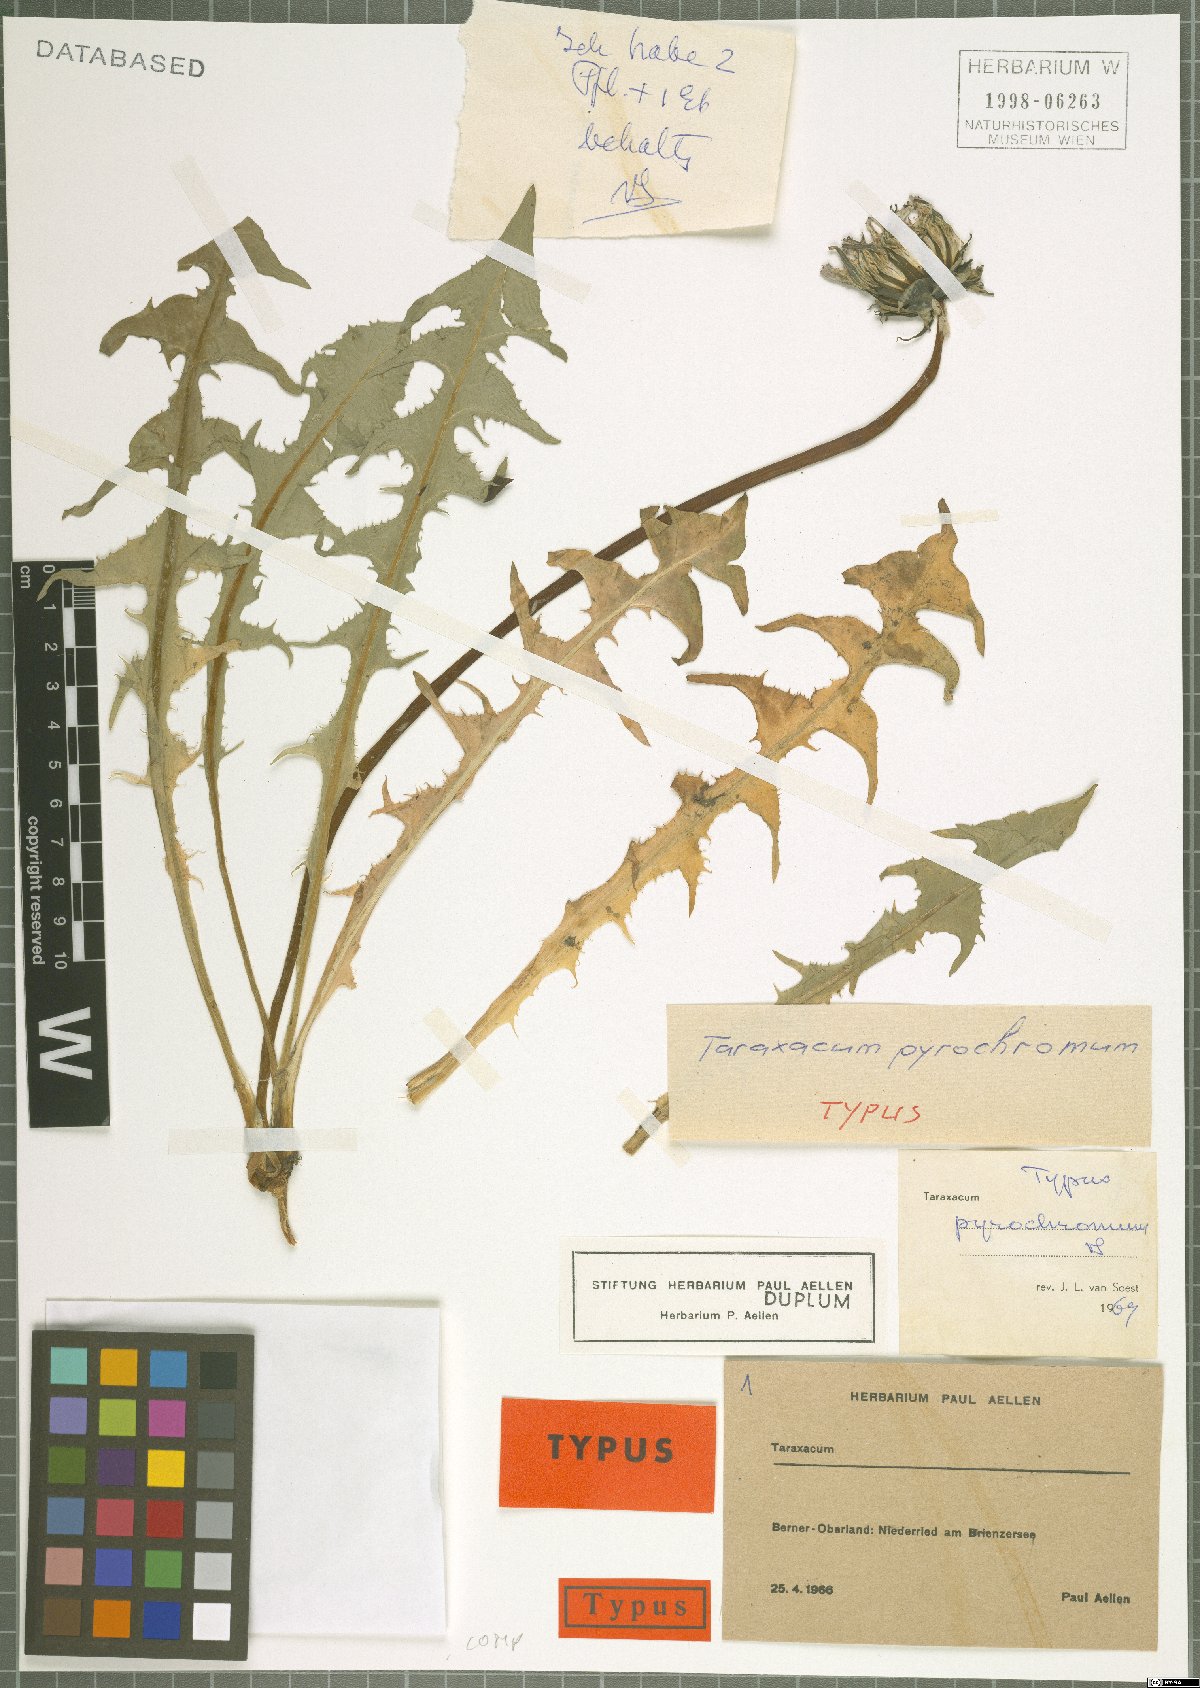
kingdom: Plantae
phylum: Tracheophyta
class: Magnoliopsida
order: Asterales
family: Asteraceae
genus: Taraxacum
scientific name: Taraxacum pyrochromum
